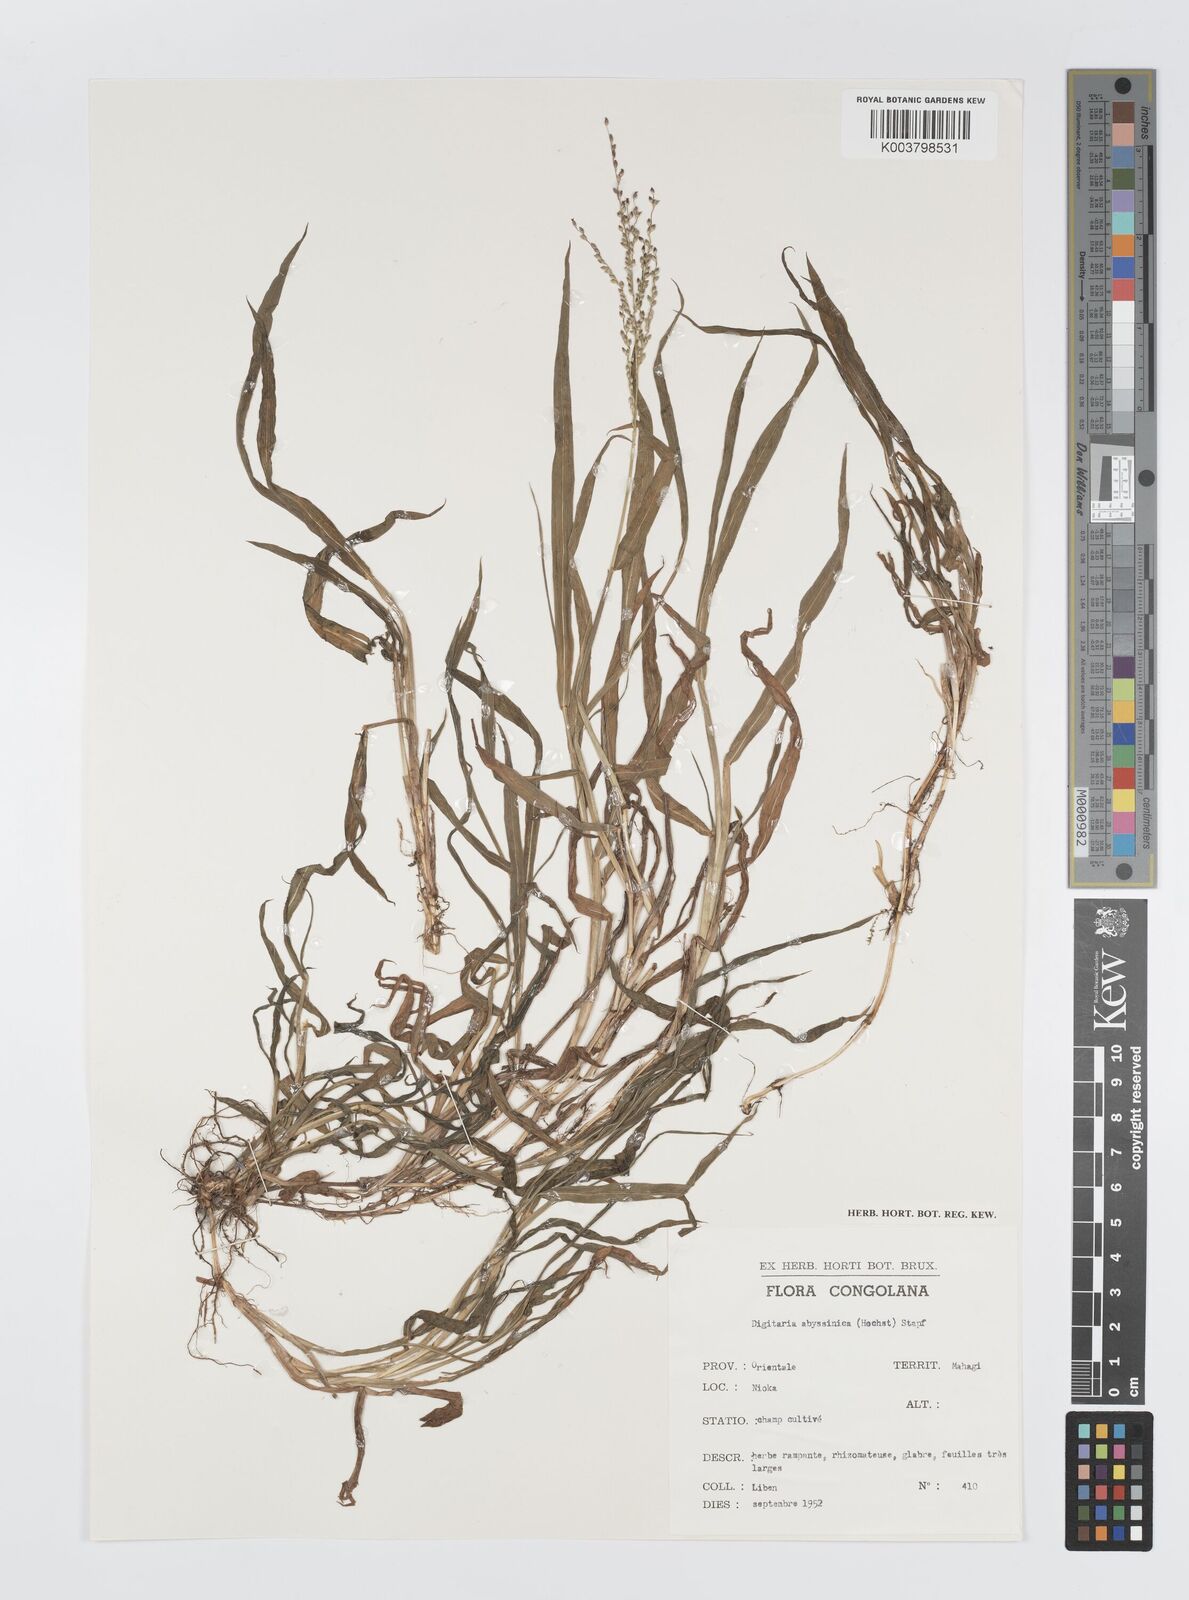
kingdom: Plantae
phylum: Tracheophyta
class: Liliopsida
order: Poales
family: Poaceae
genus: Digitaria
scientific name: Digitaria abyssinica
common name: African couchgrass
